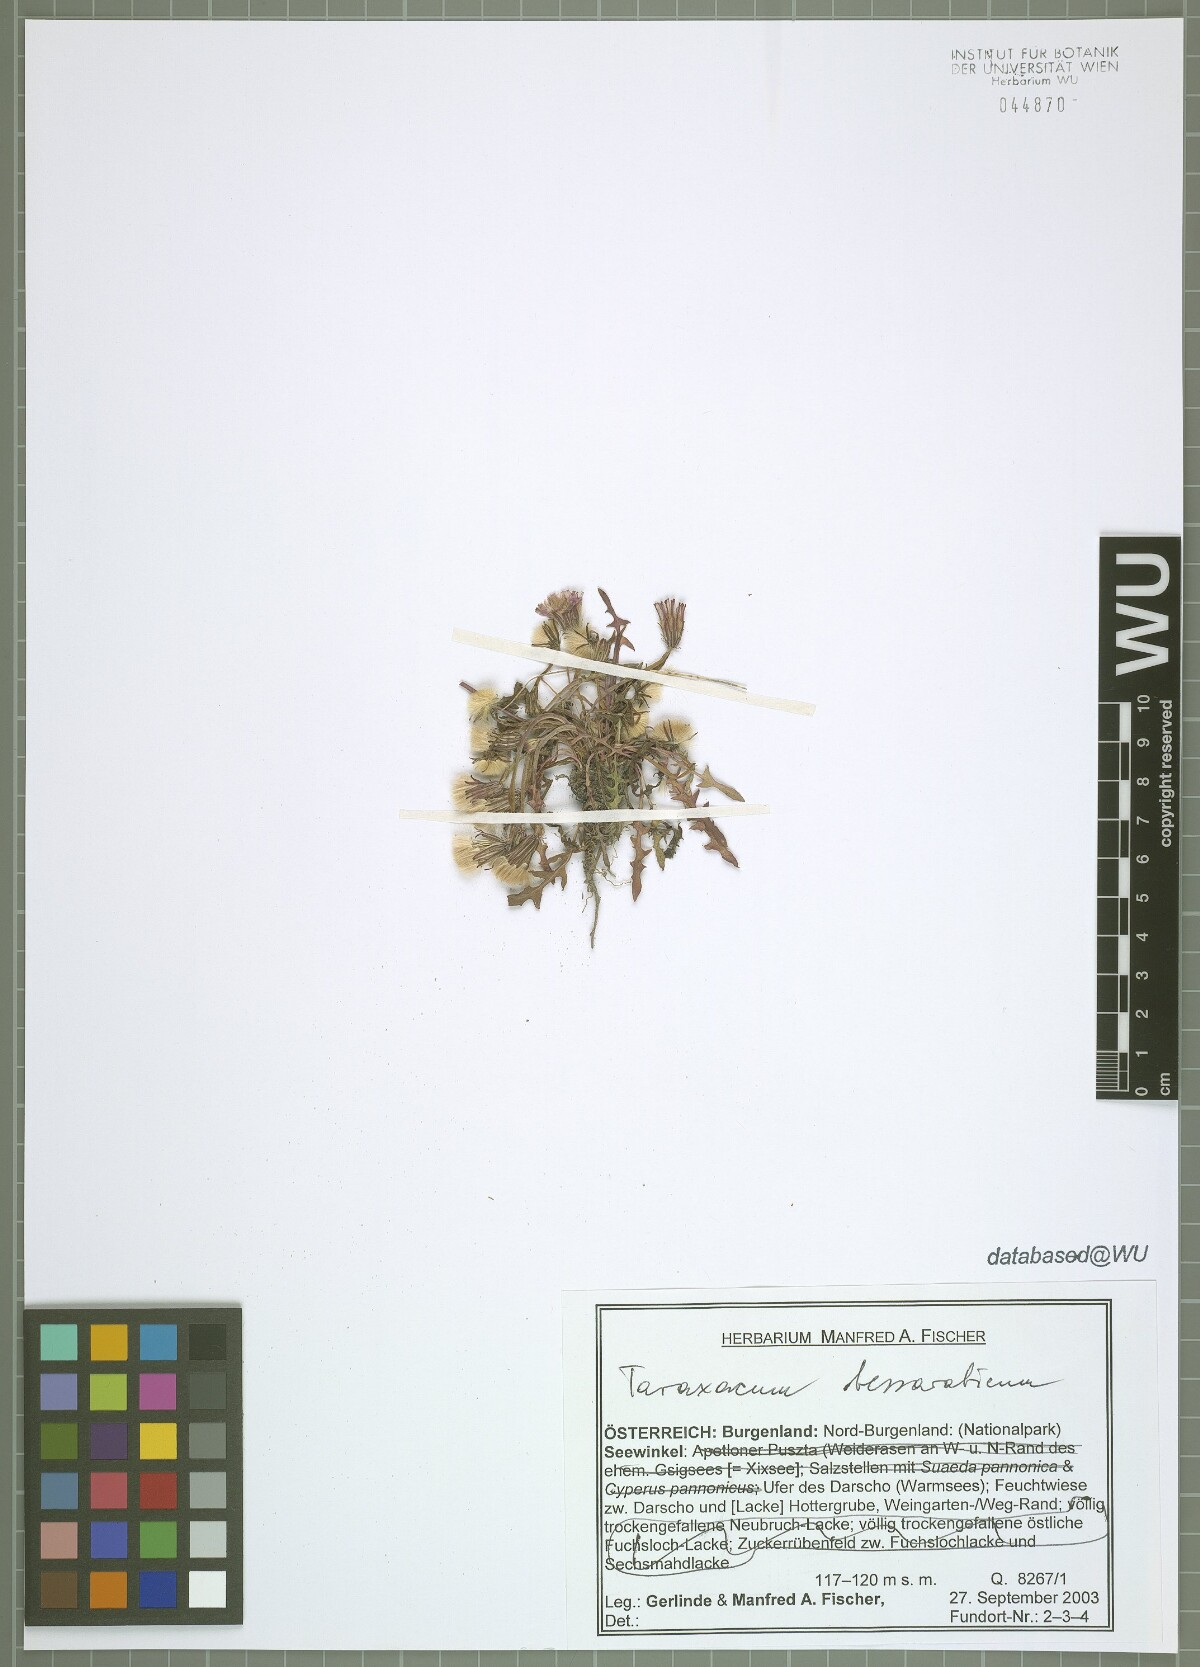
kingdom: Plantae
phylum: Tracheophyta
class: Magnoliopsida
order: Asterales
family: Asteraceae
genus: Taraxacum
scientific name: Taraxacum bessarabicum
